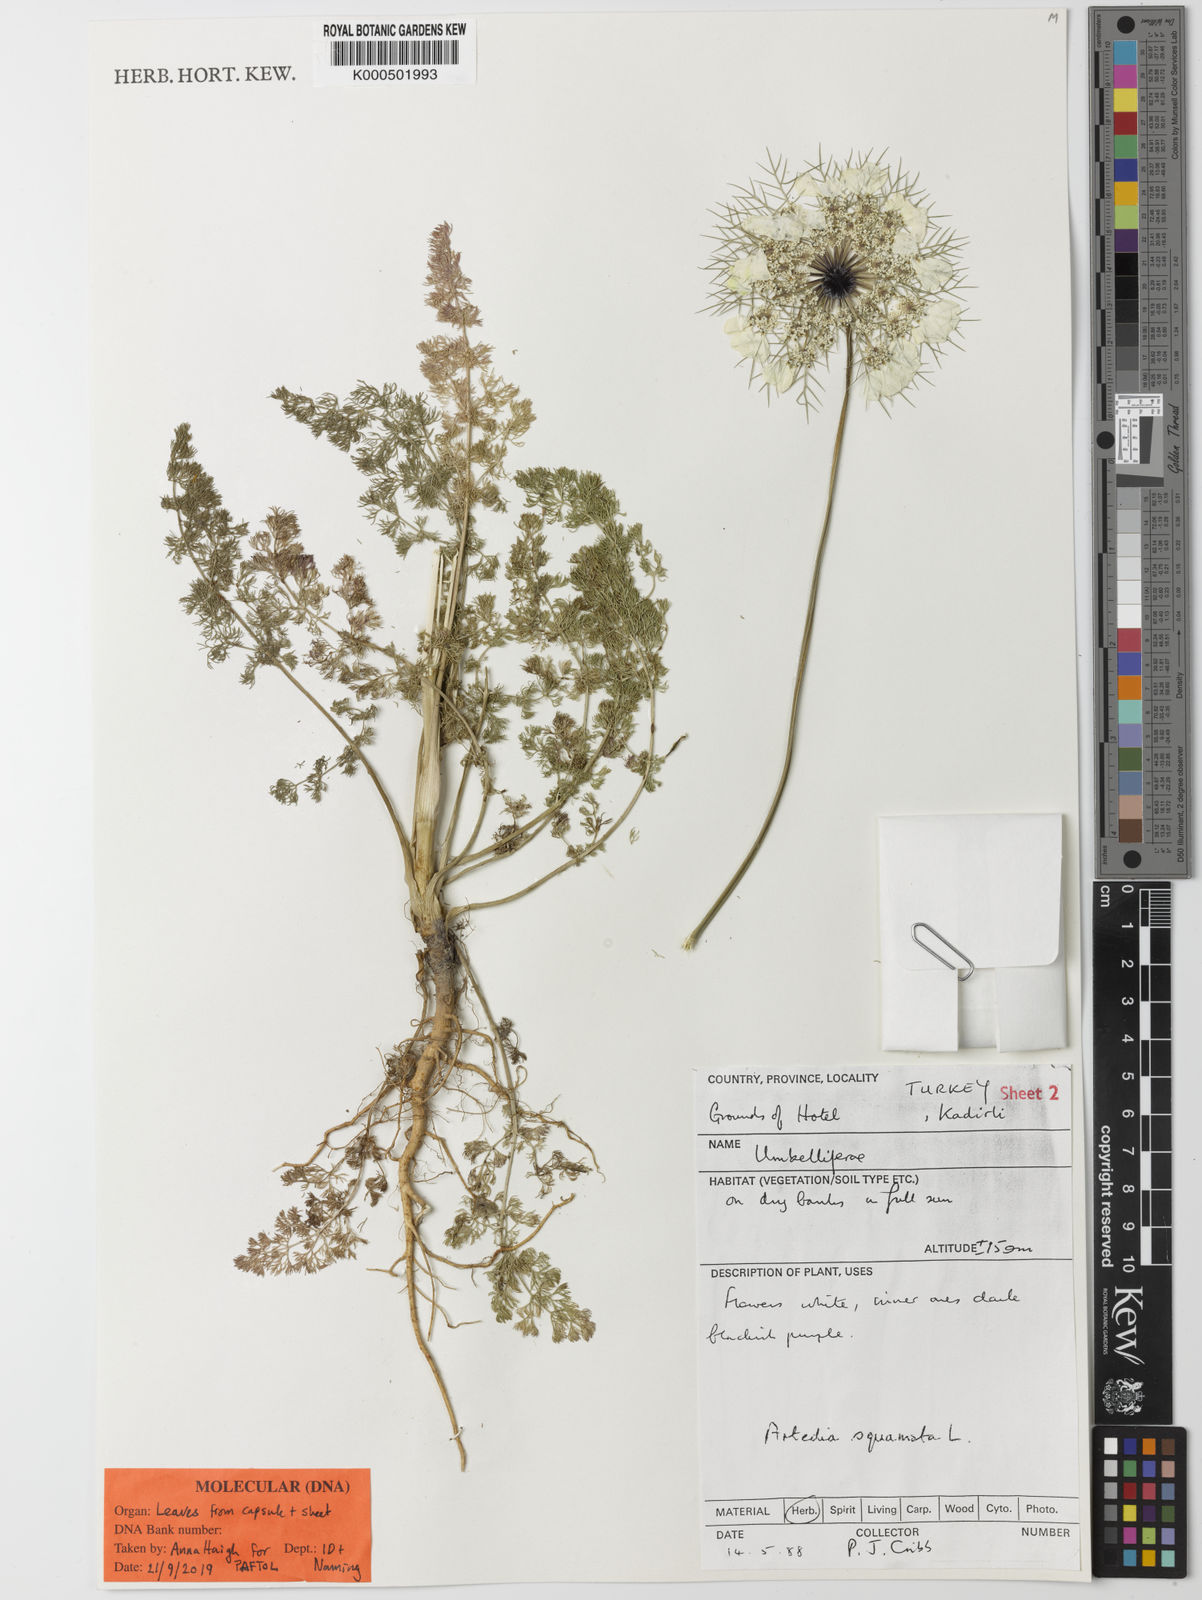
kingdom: Plantae
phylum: Tracheophyta
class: Magnoliopsida
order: Apiales
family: Apiaceae
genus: Artedia
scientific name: Artedia squamata
